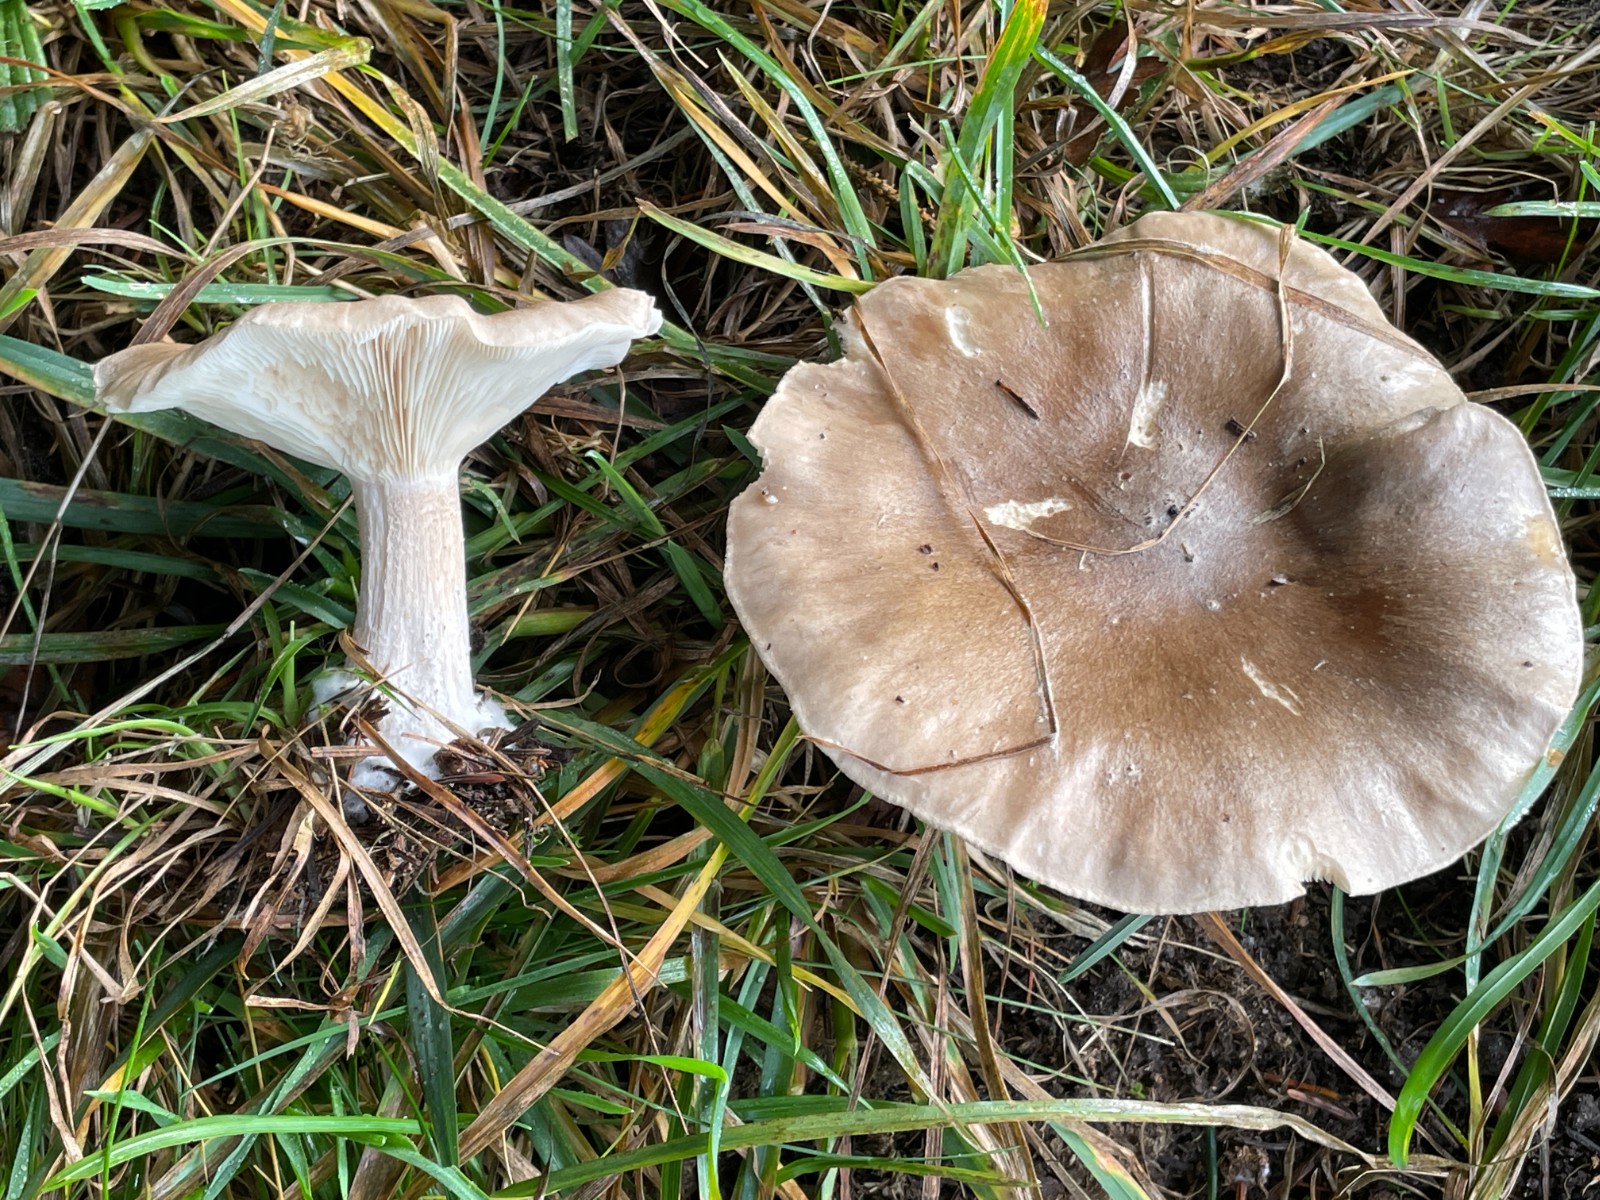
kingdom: Fungi
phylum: Basidiomycota
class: Agaricomycetes
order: Agaricales
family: Tricholomataceae
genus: Clitocybe
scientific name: Clitocybe nebularis
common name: tåge-tragthat
